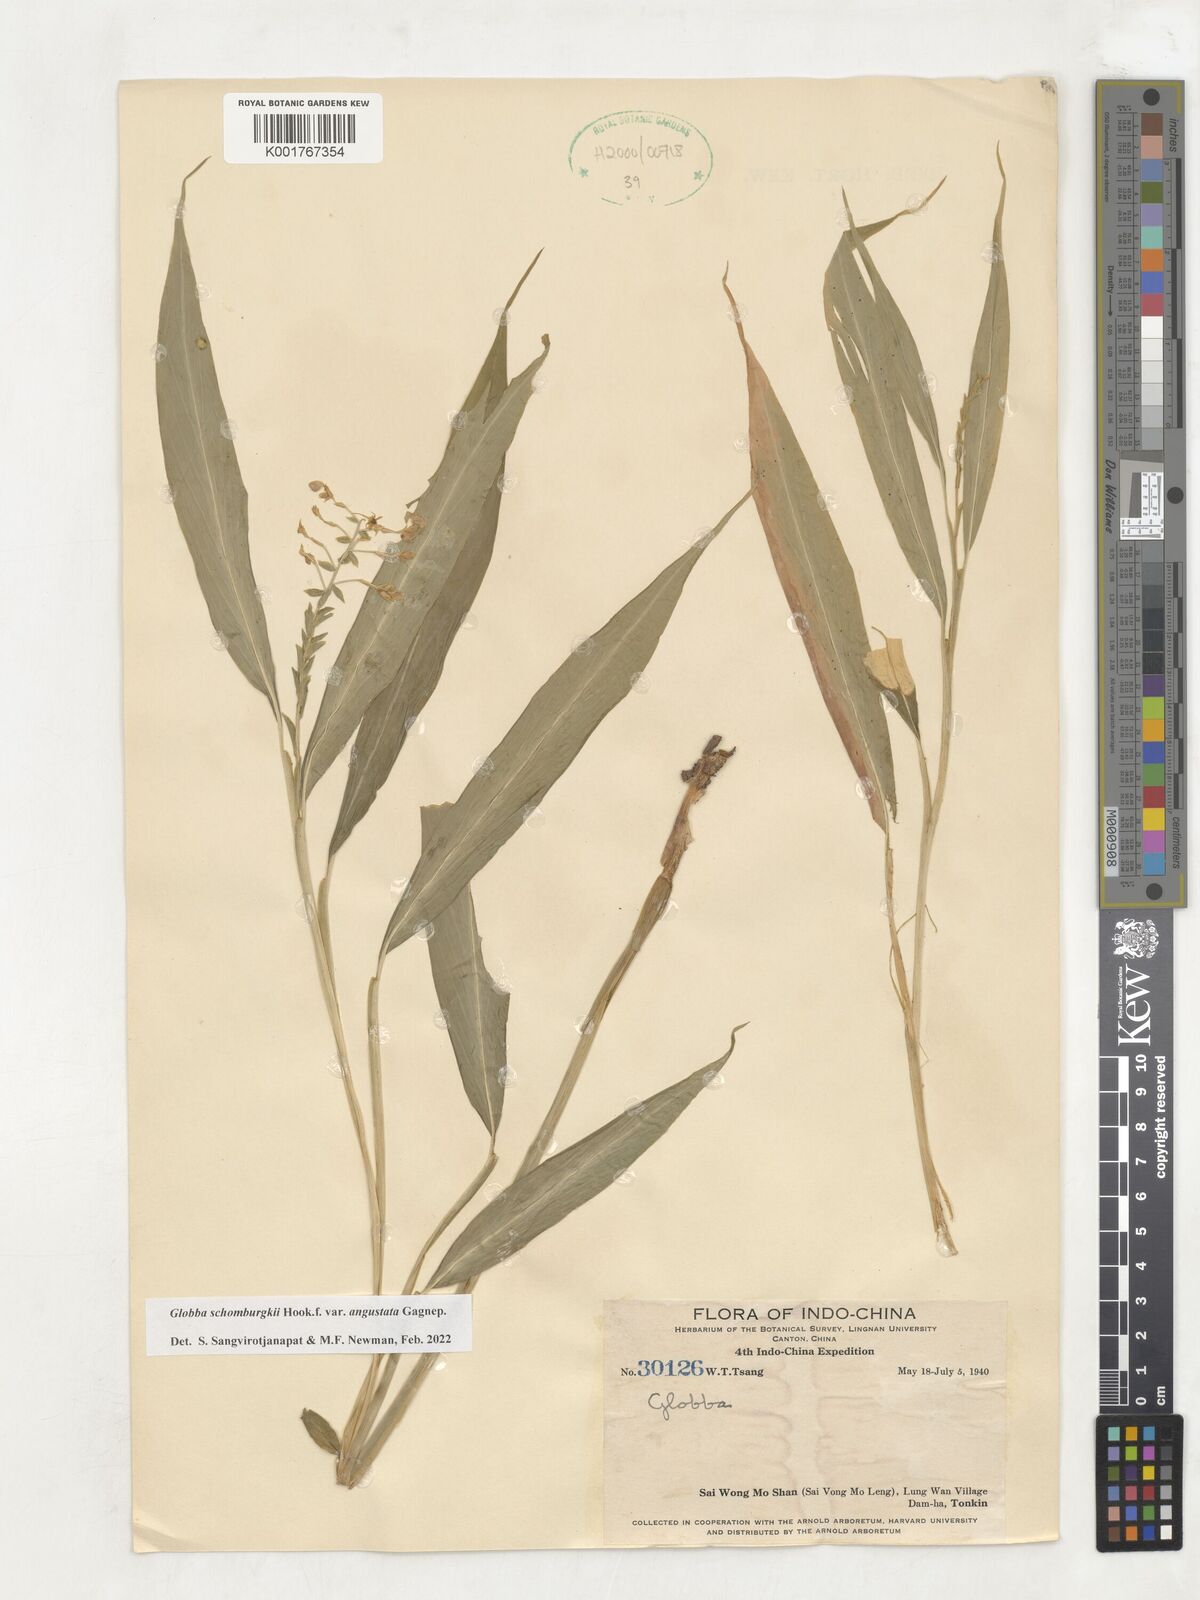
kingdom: Plantae
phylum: Tracheophyta
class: Liliopsida
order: Zingiberales
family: Zingiberaceae
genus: Globba
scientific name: Globba schomburgkii
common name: Dancing girl ginger
